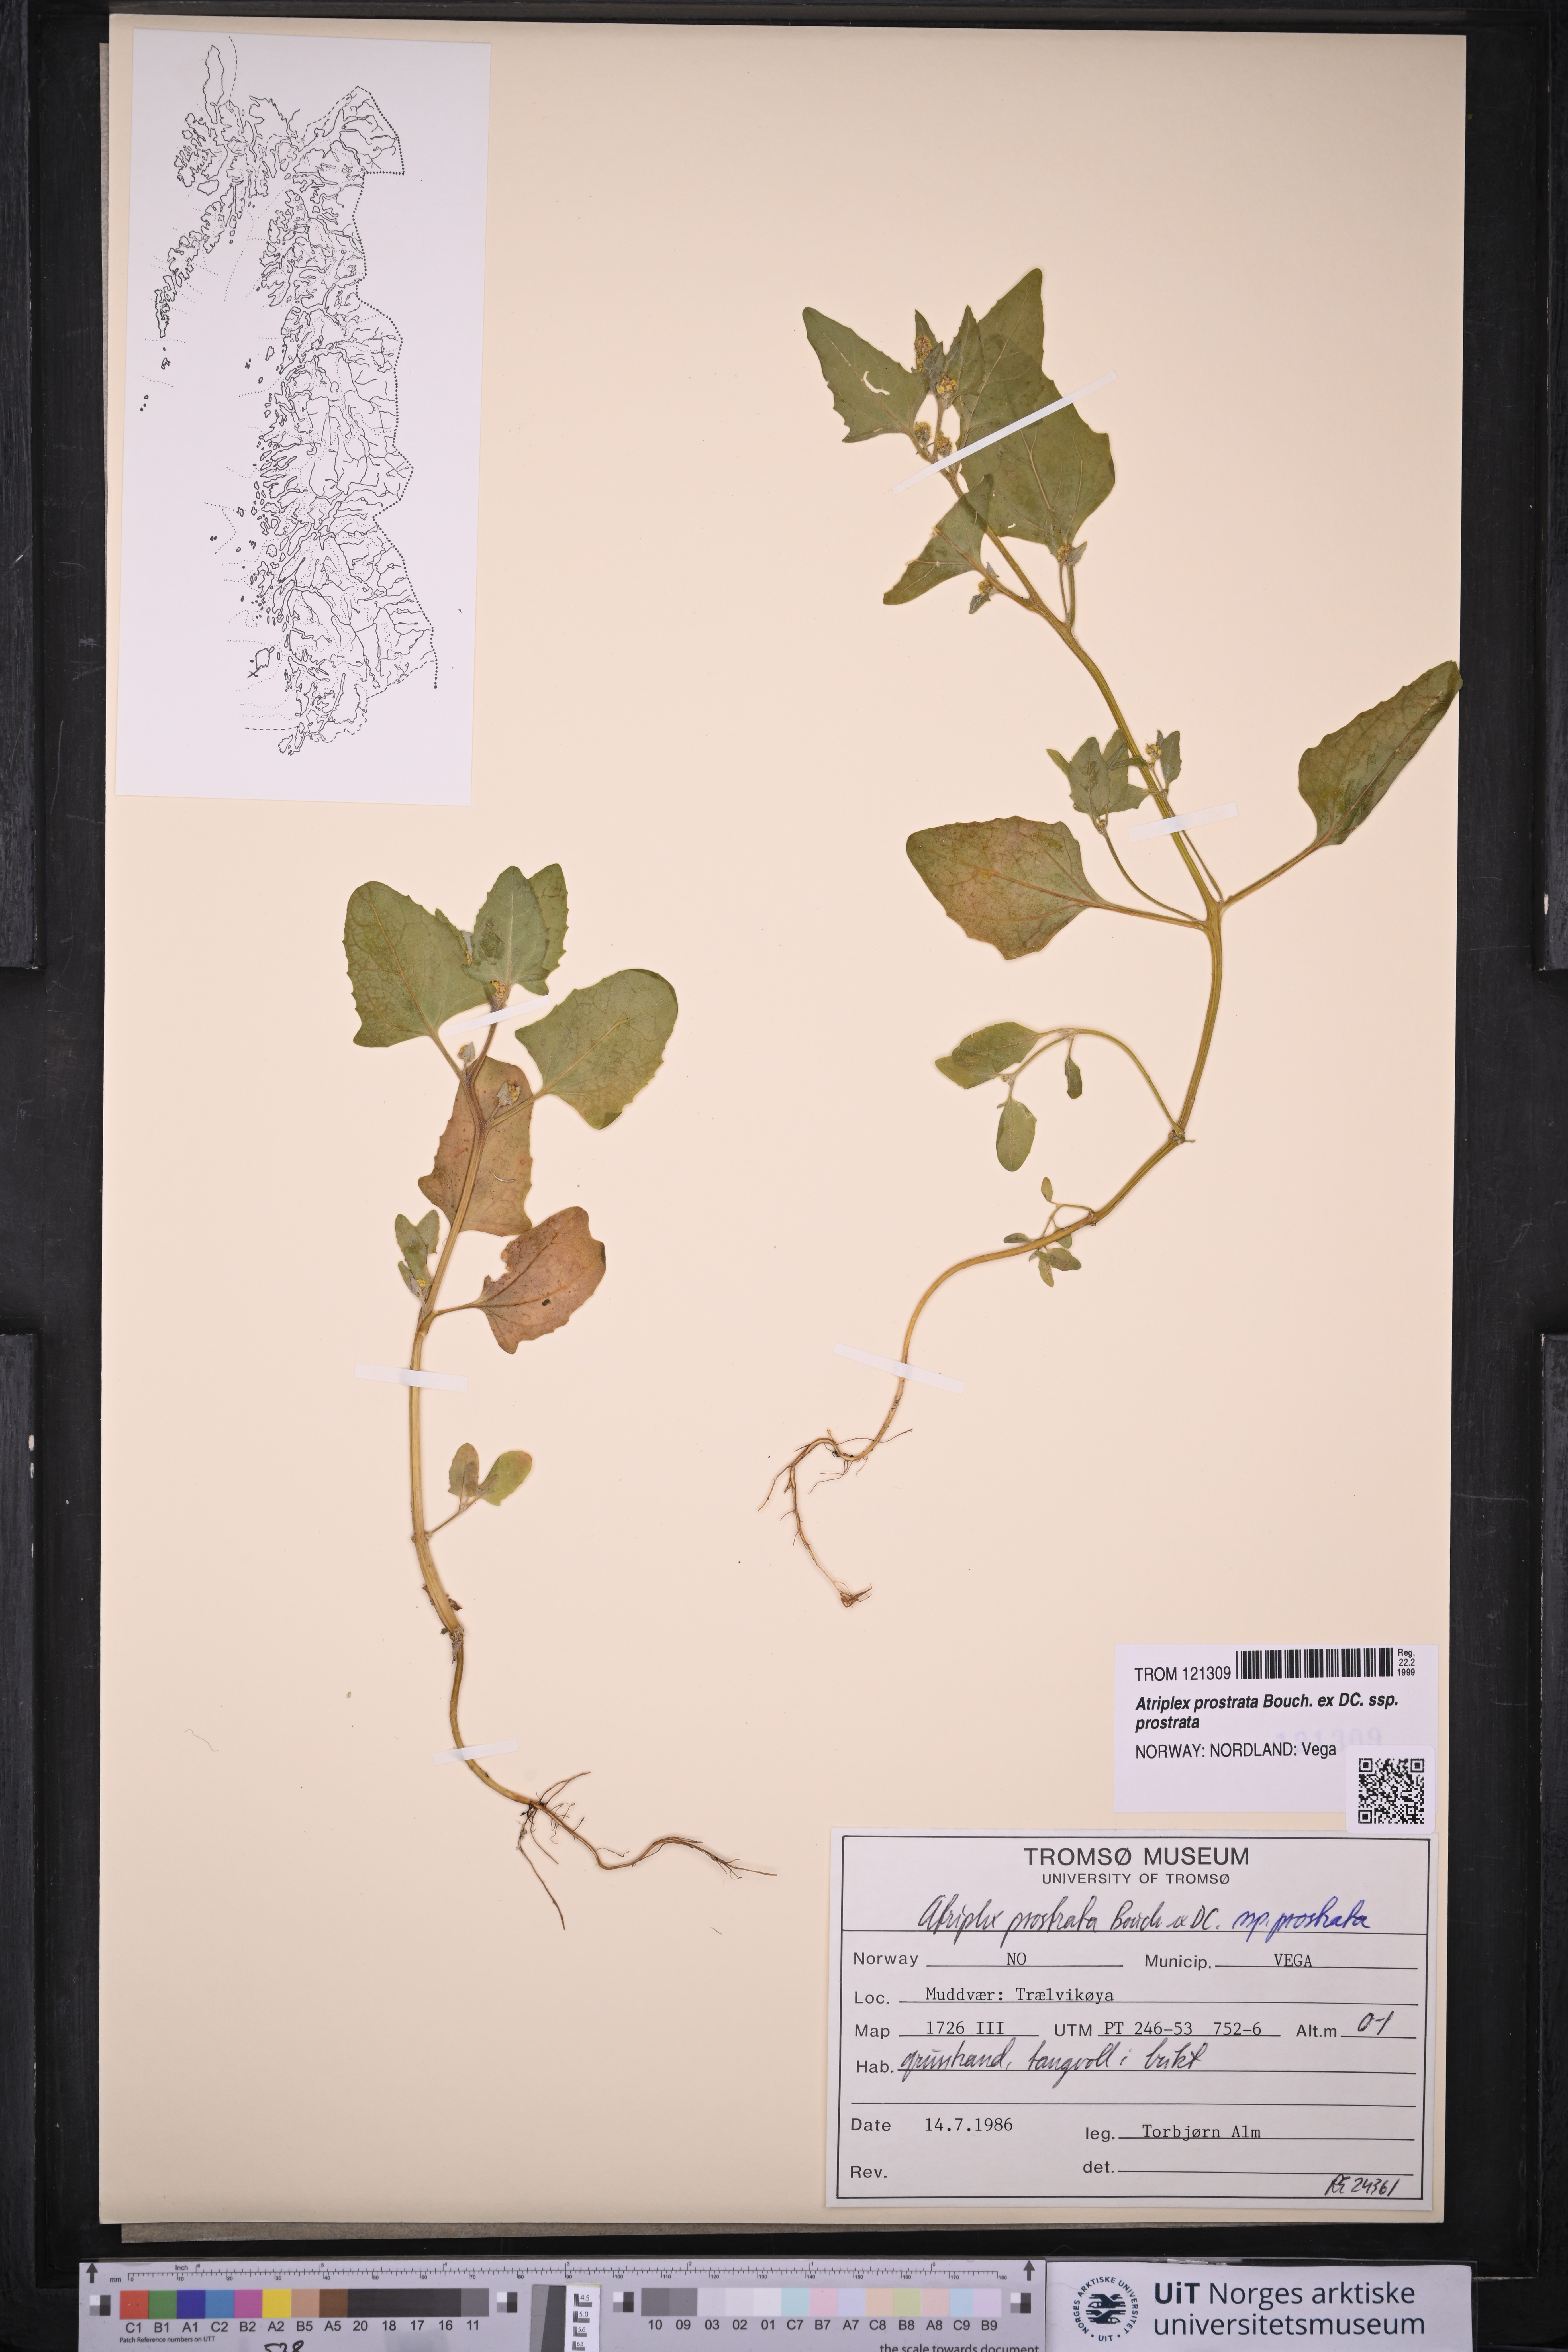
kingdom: Plantae
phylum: Tracheophyta
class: Magnoliopsida
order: Caryophyllales
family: Amaranthaceae
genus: Atriplex
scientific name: Atriplex prostrata
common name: Spear-leaved orache
